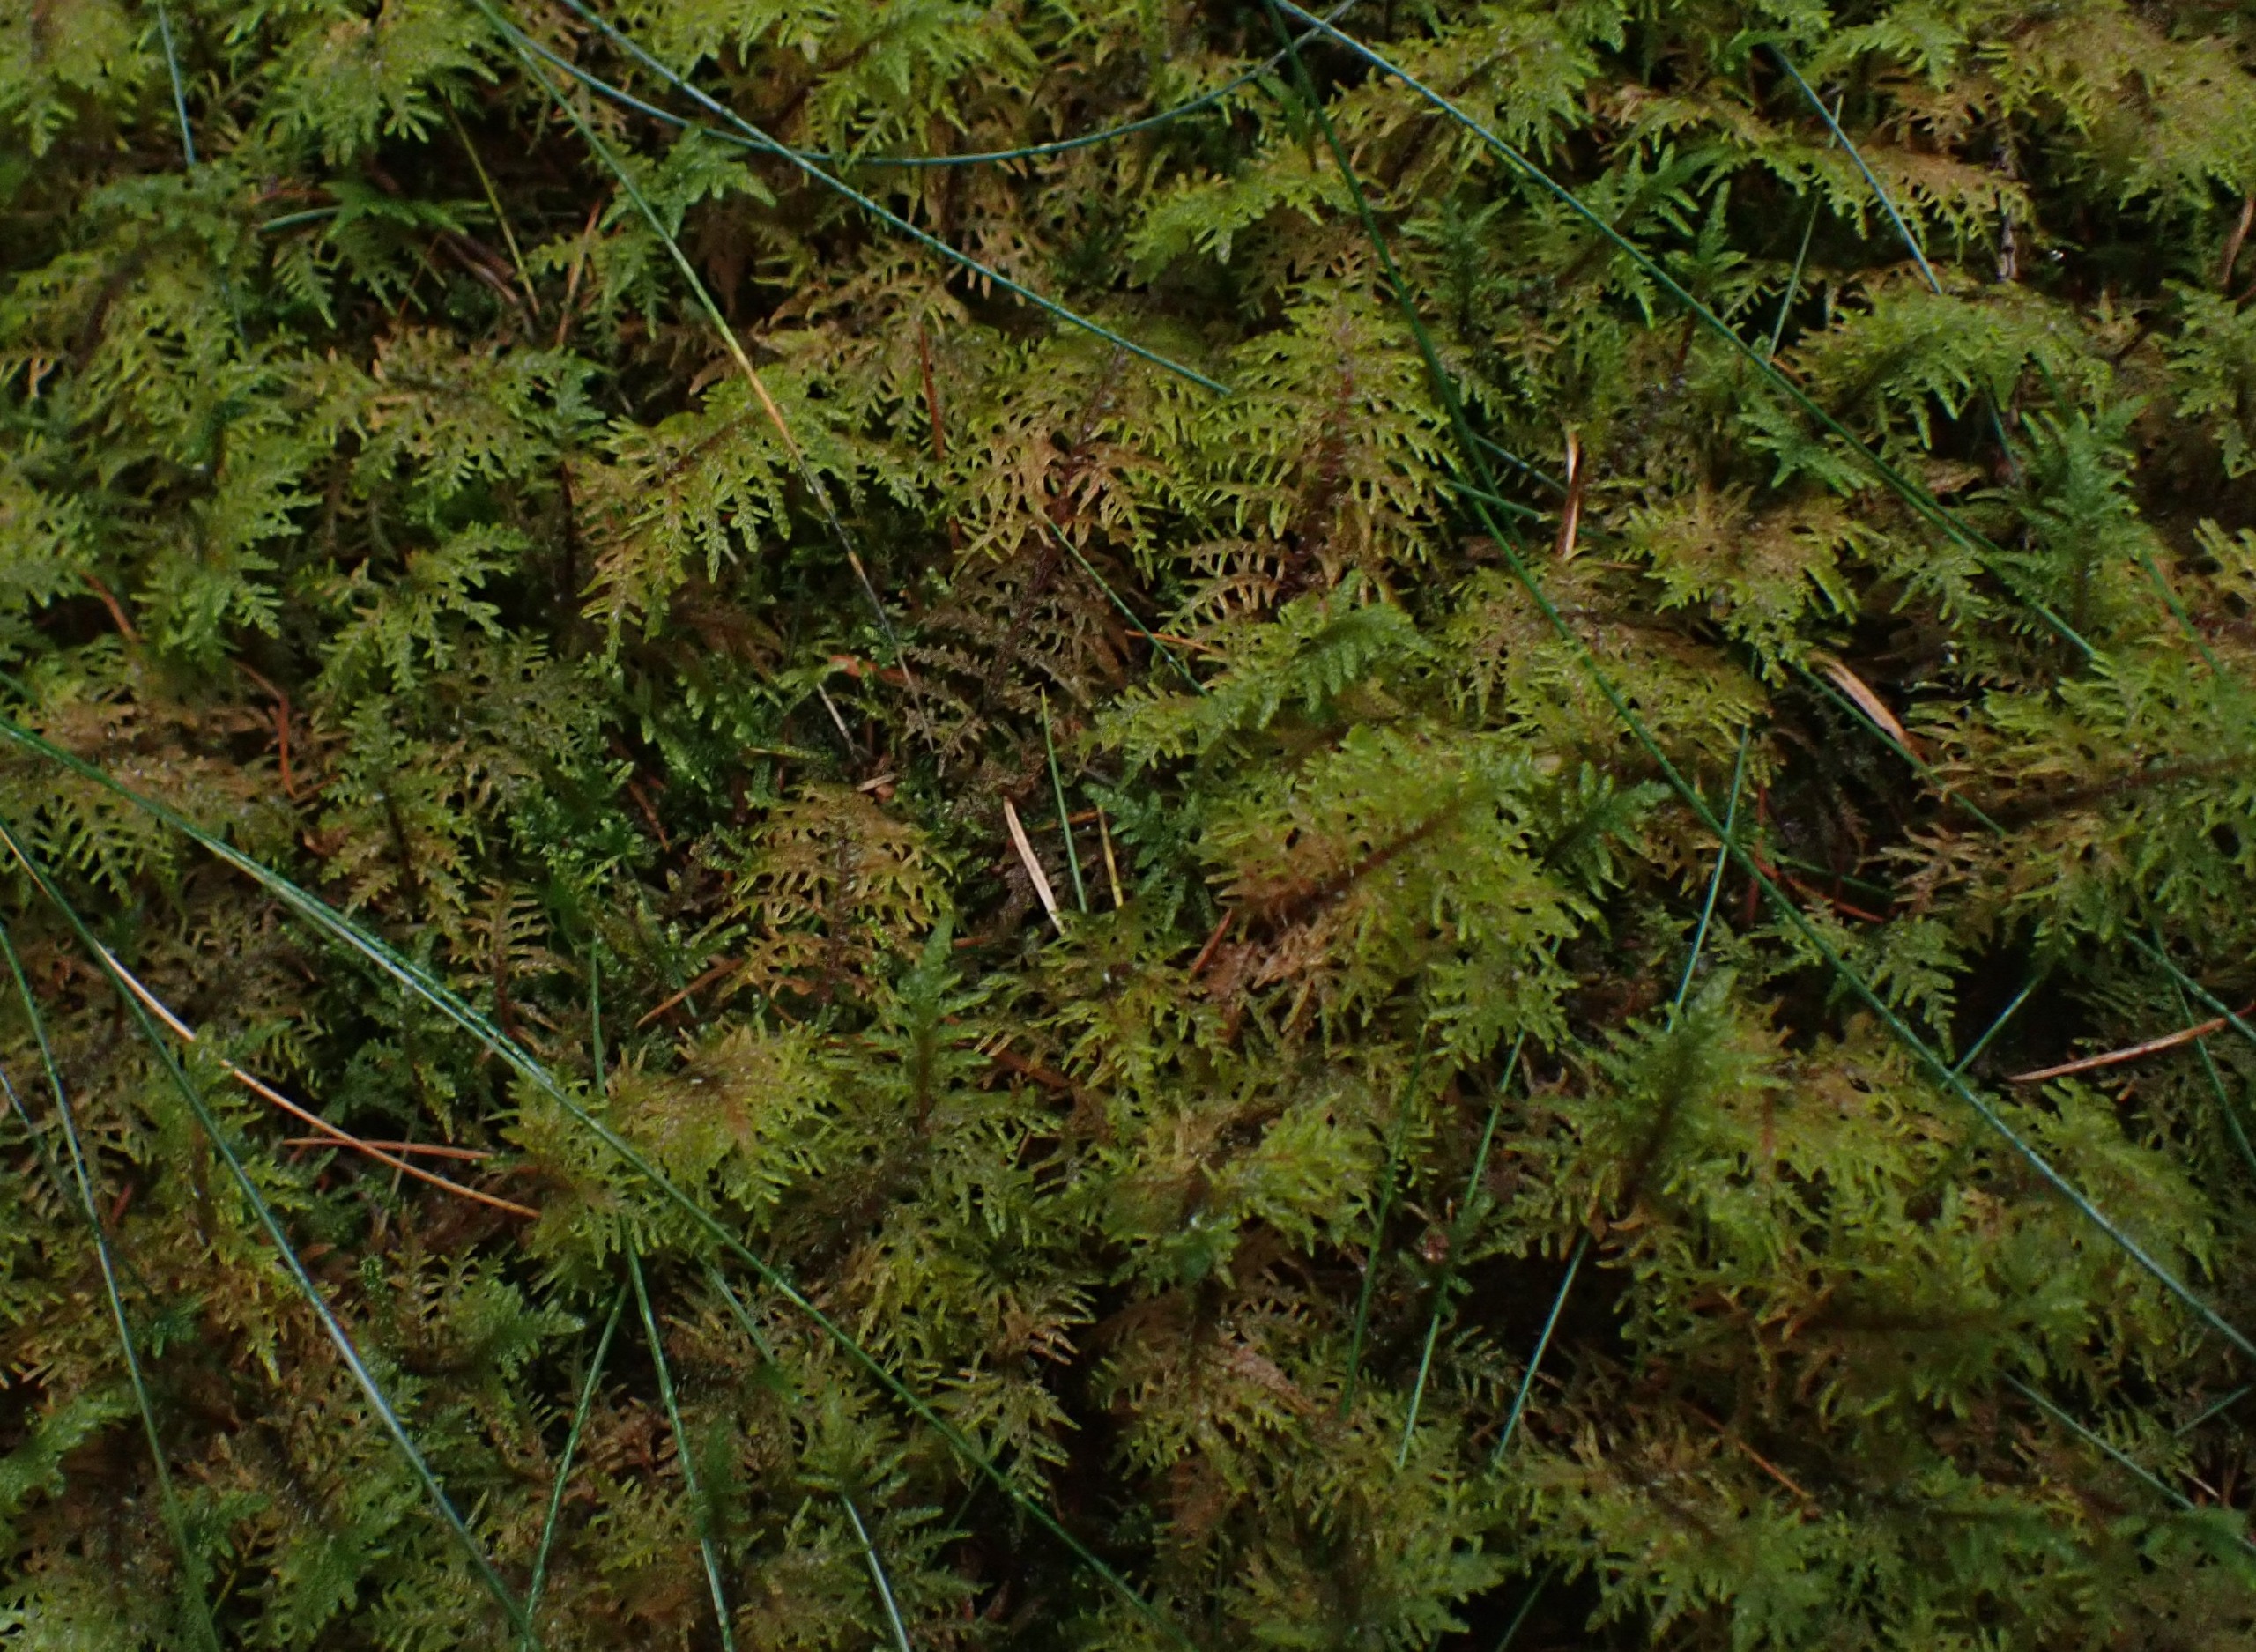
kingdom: Plantae
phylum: Bryophyta
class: Bryopsida
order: Hypnales
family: Hylocomiaceae
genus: Hylocomium
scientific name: Hylocomium splendens
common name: Almindelig etagemos
